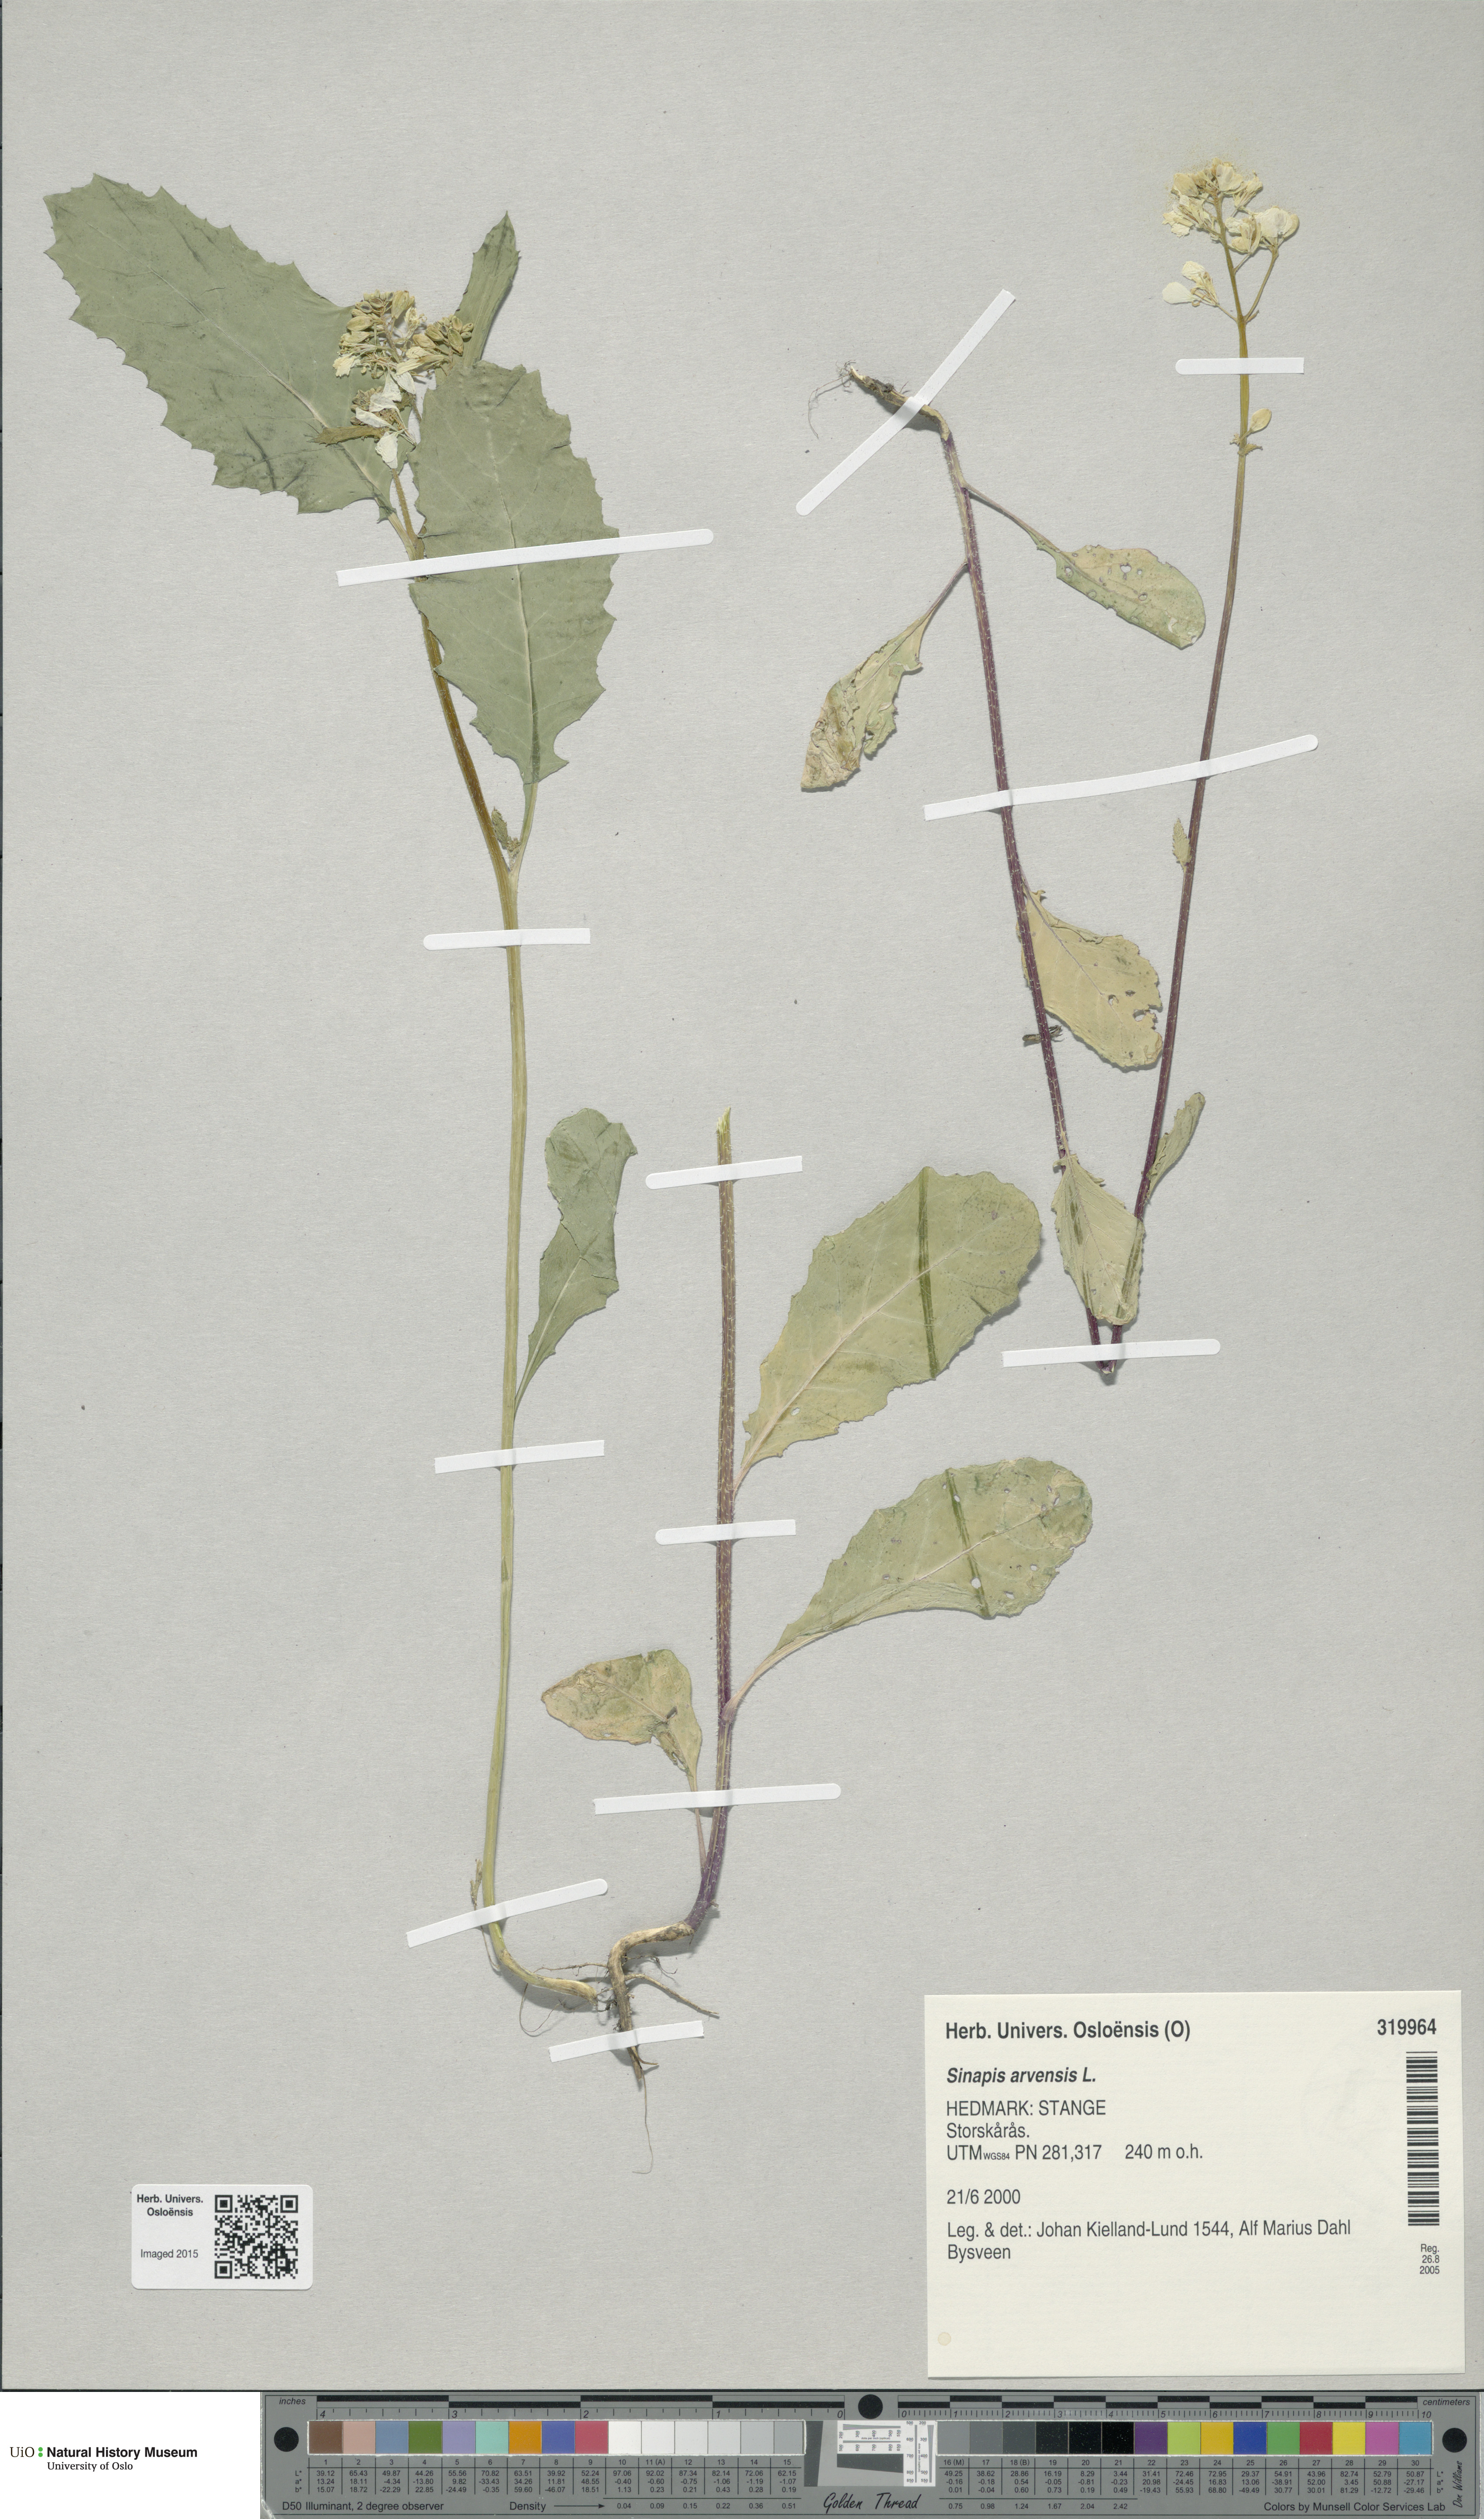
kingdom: Plantae
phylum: Tracheophyta
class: Magnoliopsida
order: Brassicales
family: Brassicaceae
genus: Sinapis
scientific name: Sinapis arvensis
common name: Charlock
